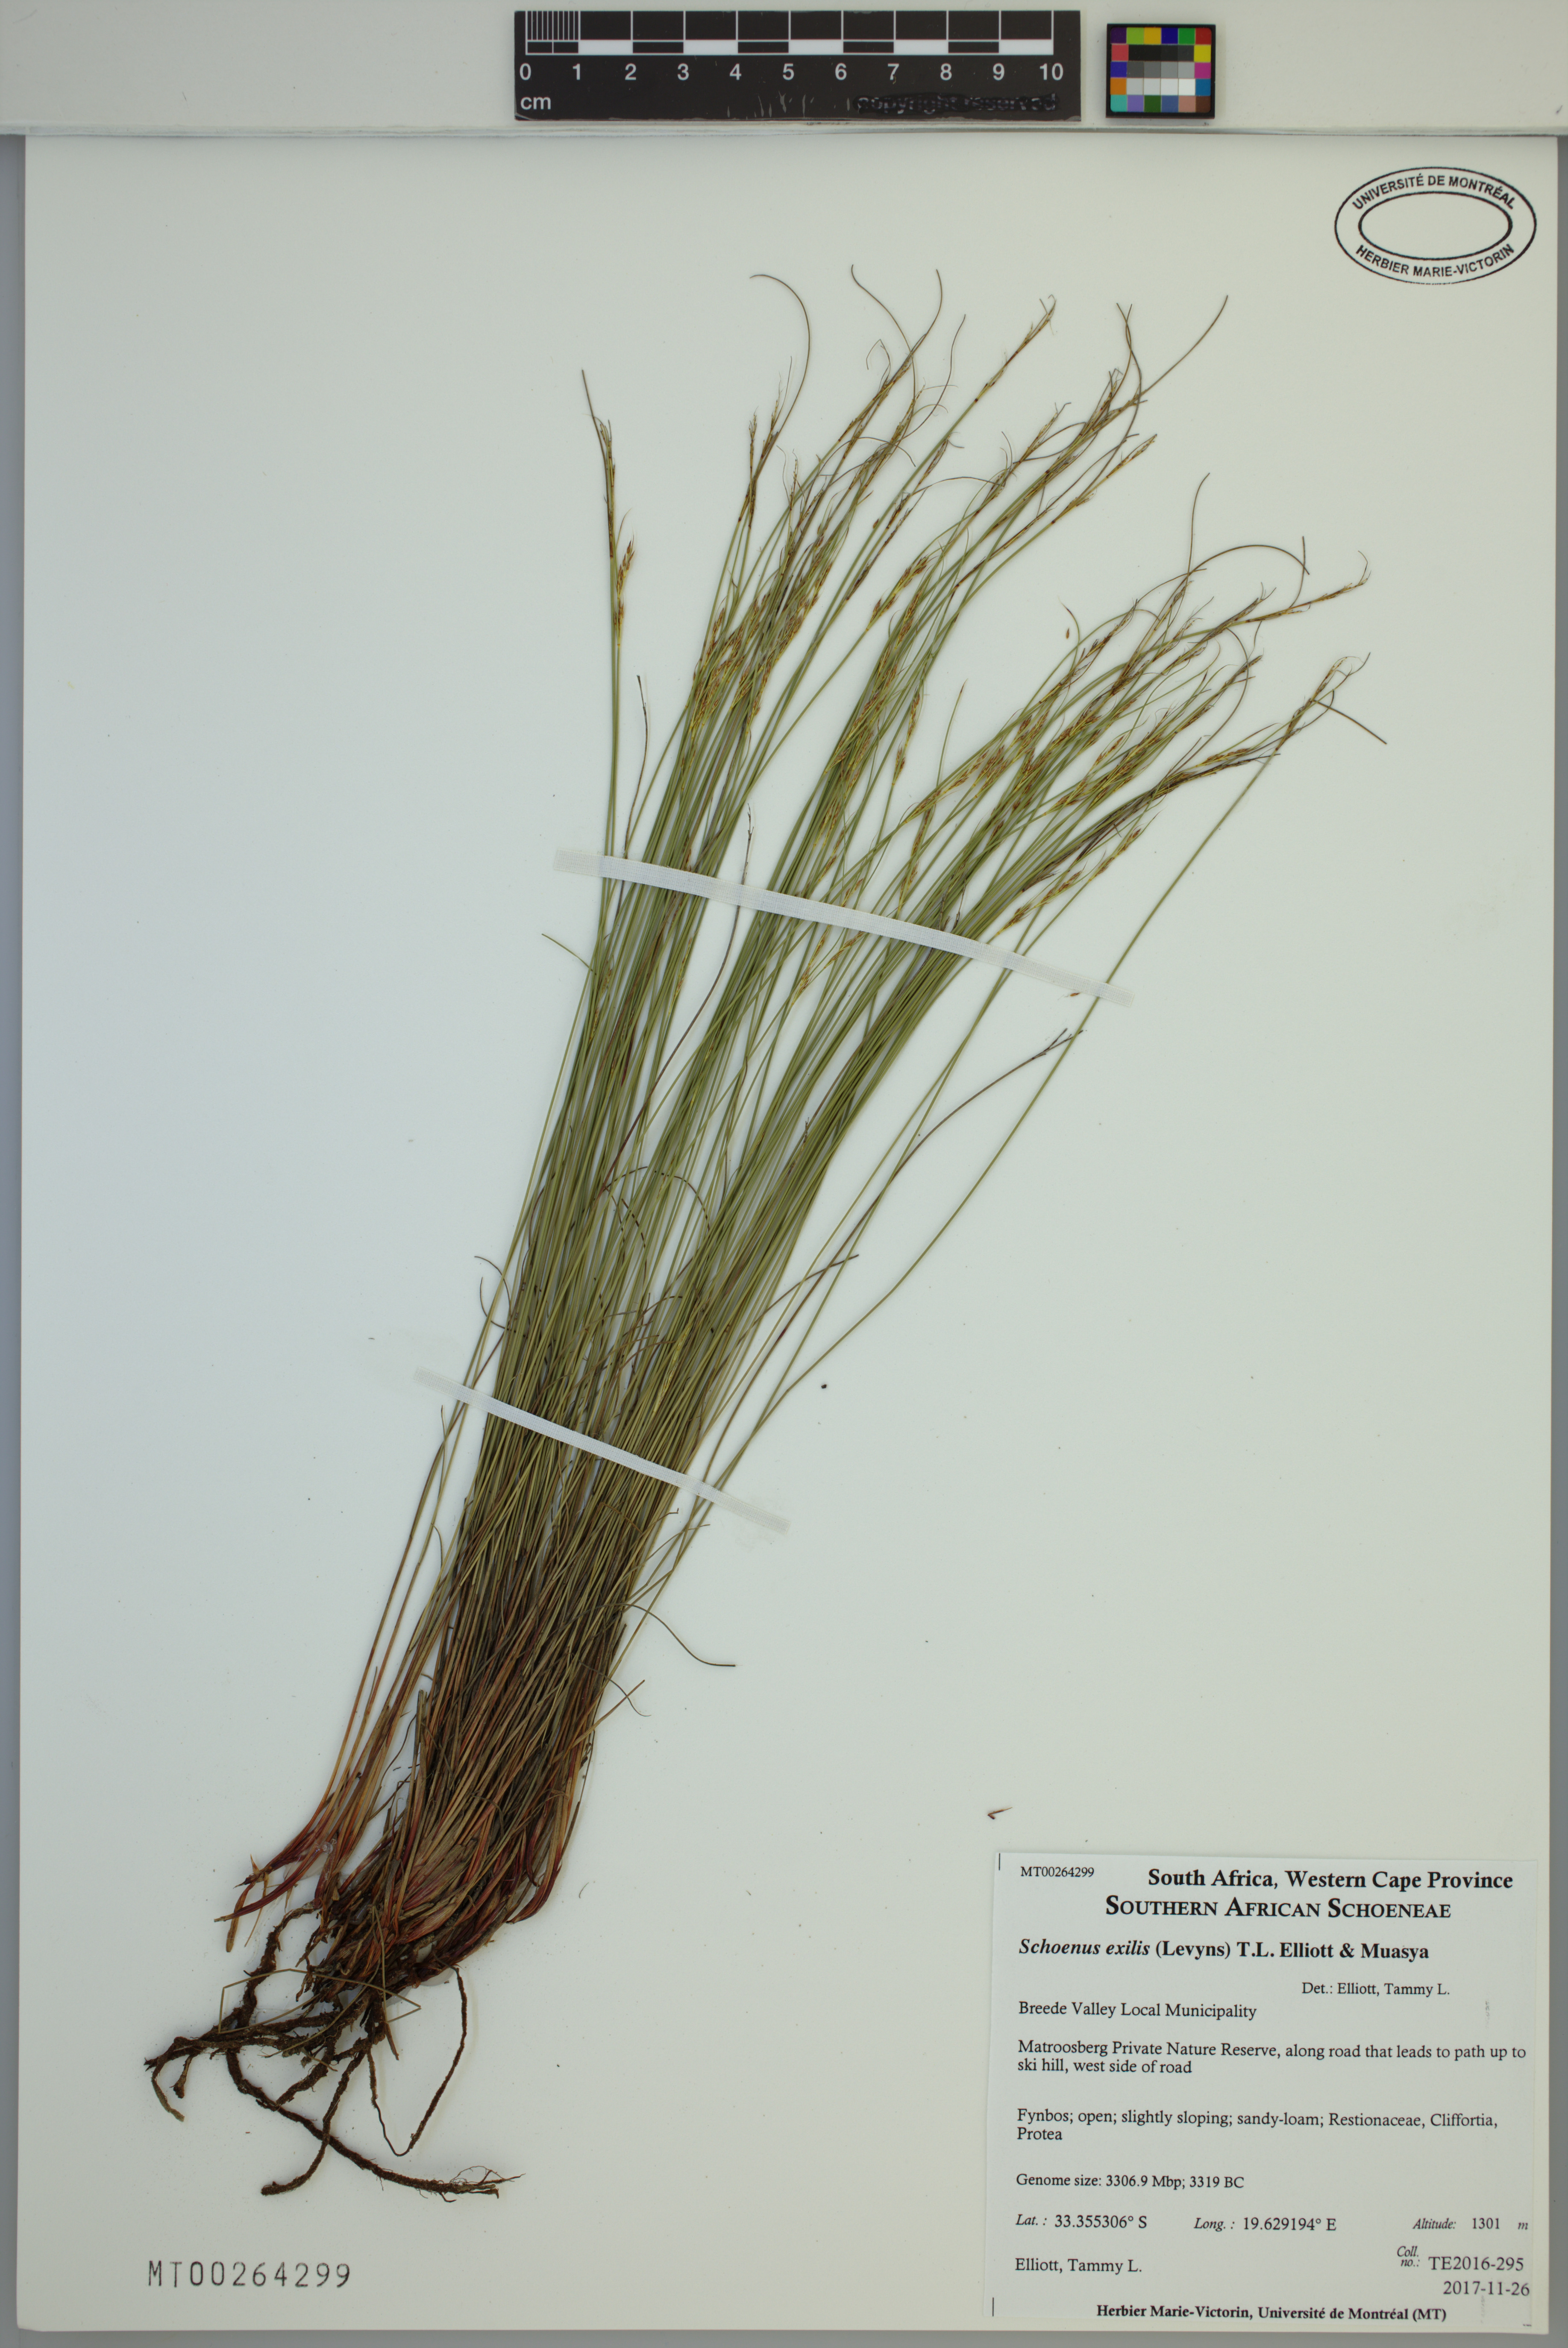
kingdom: Plantae
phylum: Tracheophyta
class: Liliopsida
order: Poales
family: Cyperaceae
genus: Schoenus
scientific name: Schoenus exilis
